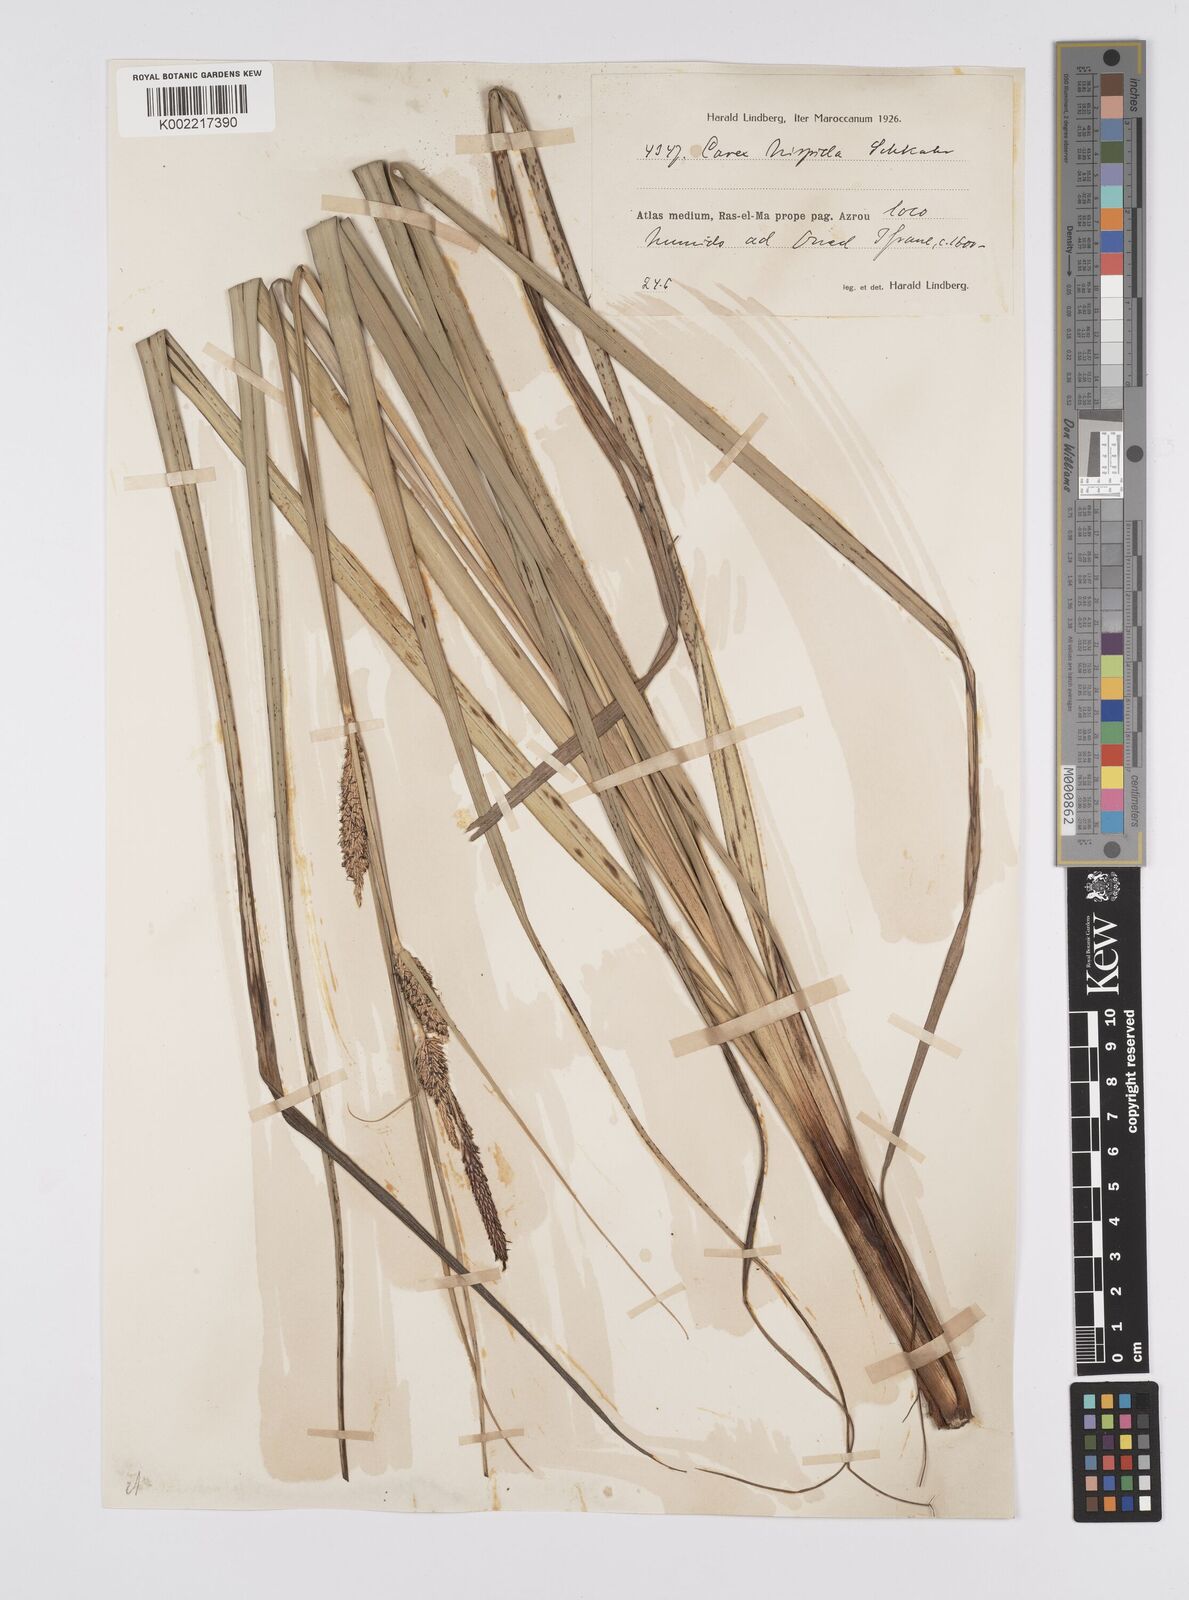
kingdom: Plantae
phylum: Tracheophyta
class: Liliopsida
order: Poales
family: Cyperaceae
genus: Carex
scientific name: Carex hispida
